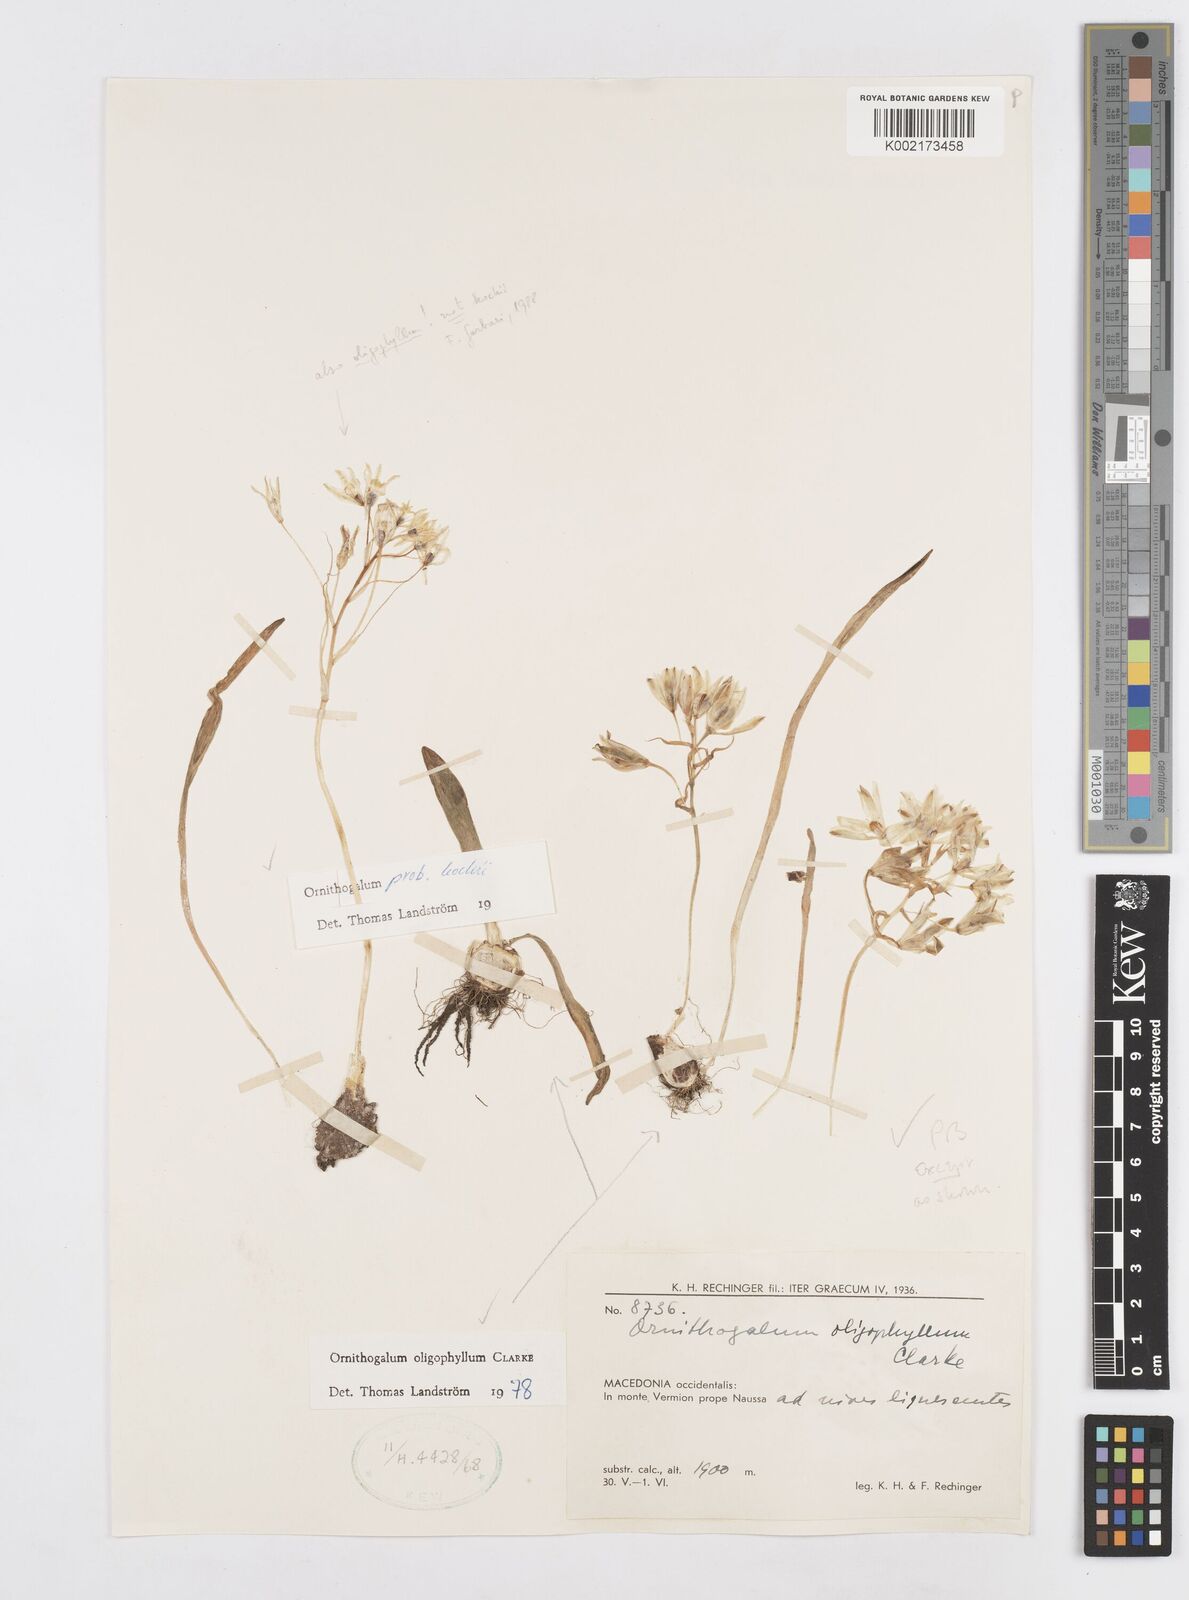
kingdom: Plantae
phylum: Tracheophyta
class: Liliopsida
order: Asparagales
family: Asparagaceae
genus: Ornithogalum
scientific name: Ornithogalum oligophyllum
